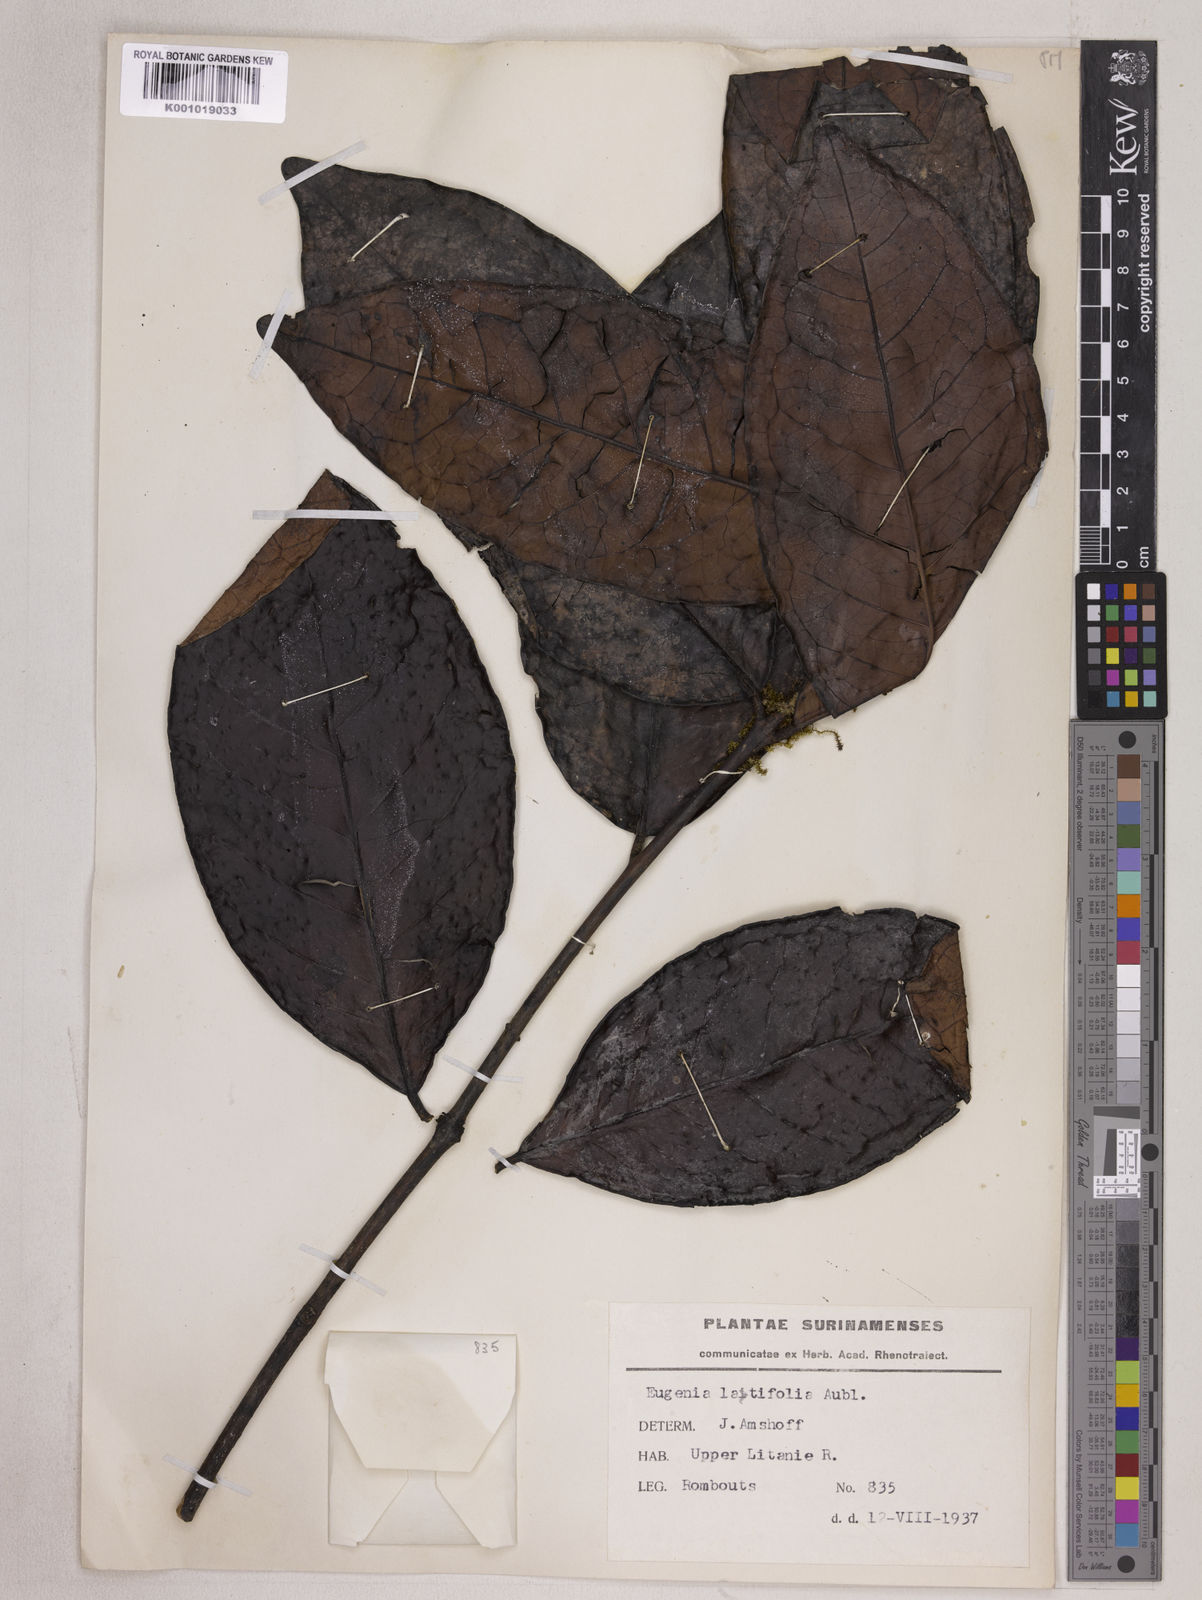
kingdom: Plantae
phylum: Tracheophyta
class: Magnoliopsida
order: Myrtales
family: Myrtaceae
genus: Eugenia
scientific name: Eugenia latifolia
